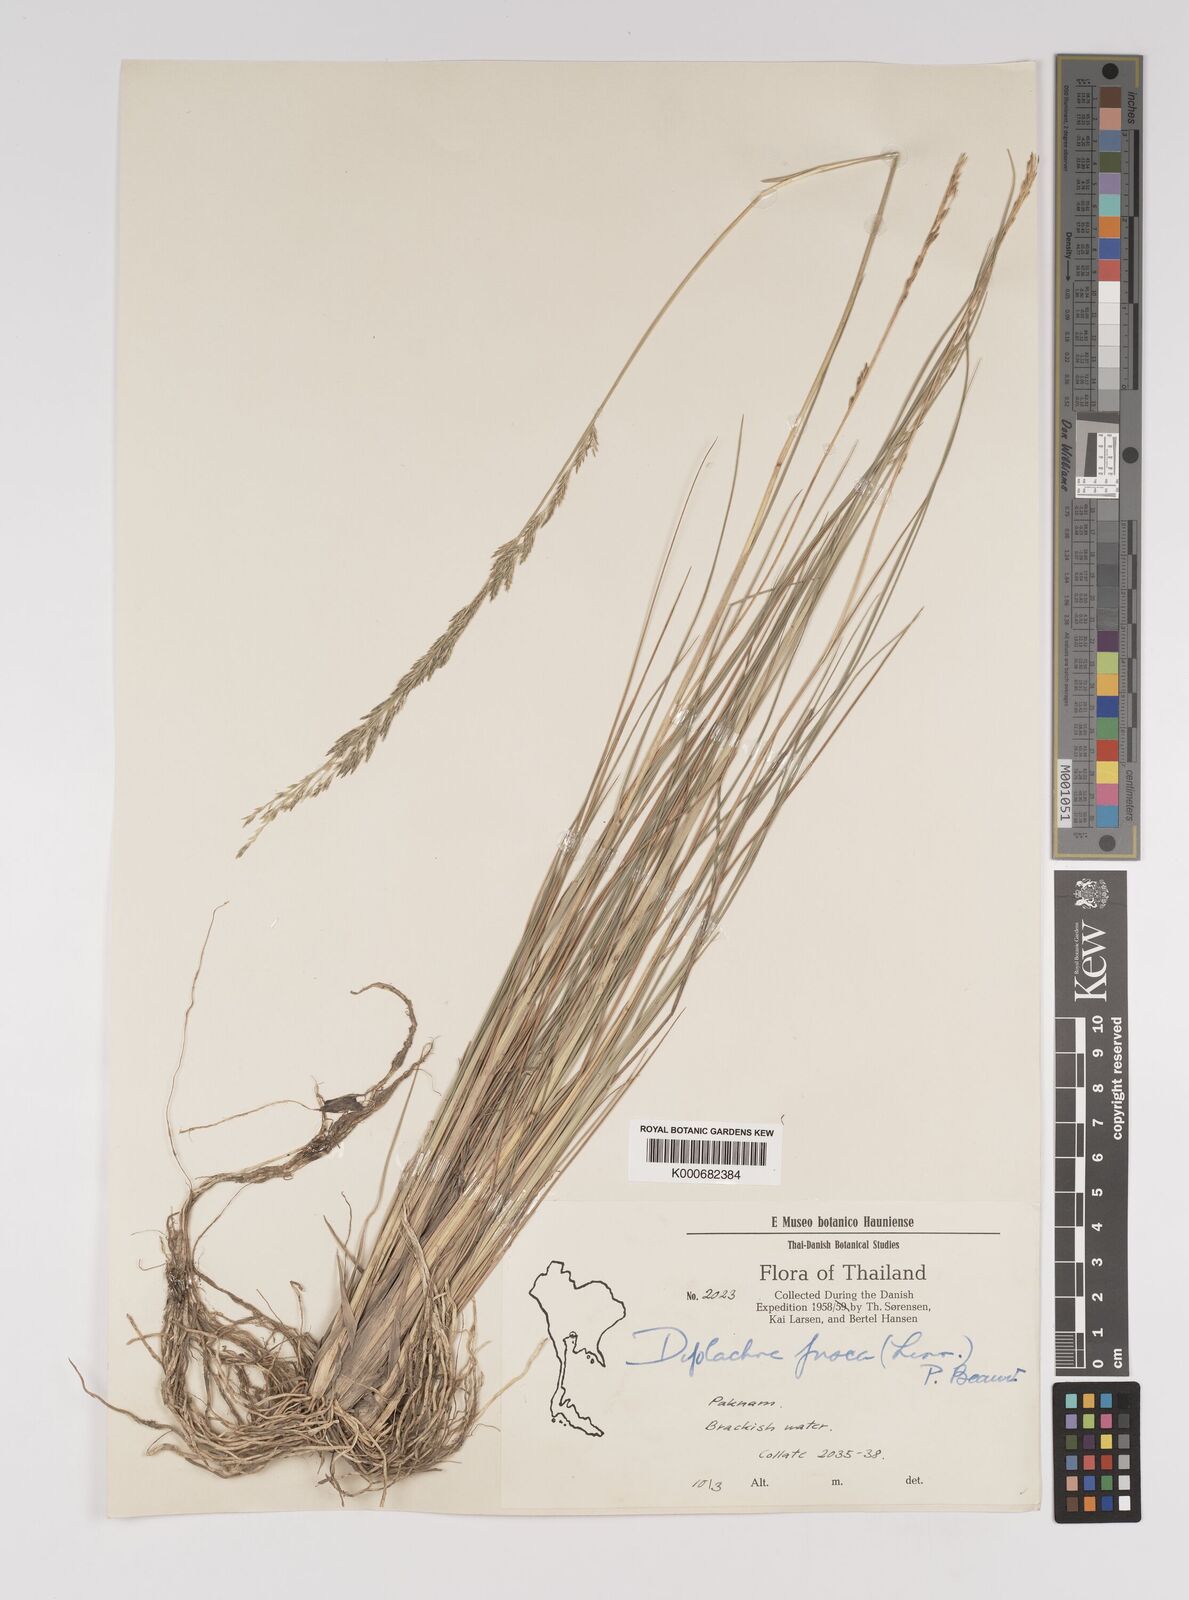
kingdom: Plantae
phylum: Tracheophyta
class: Liliopsida
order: Poales
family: Poaceae
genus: Diplachne
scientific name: Diplachne fusca
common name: Brown beetle grass
